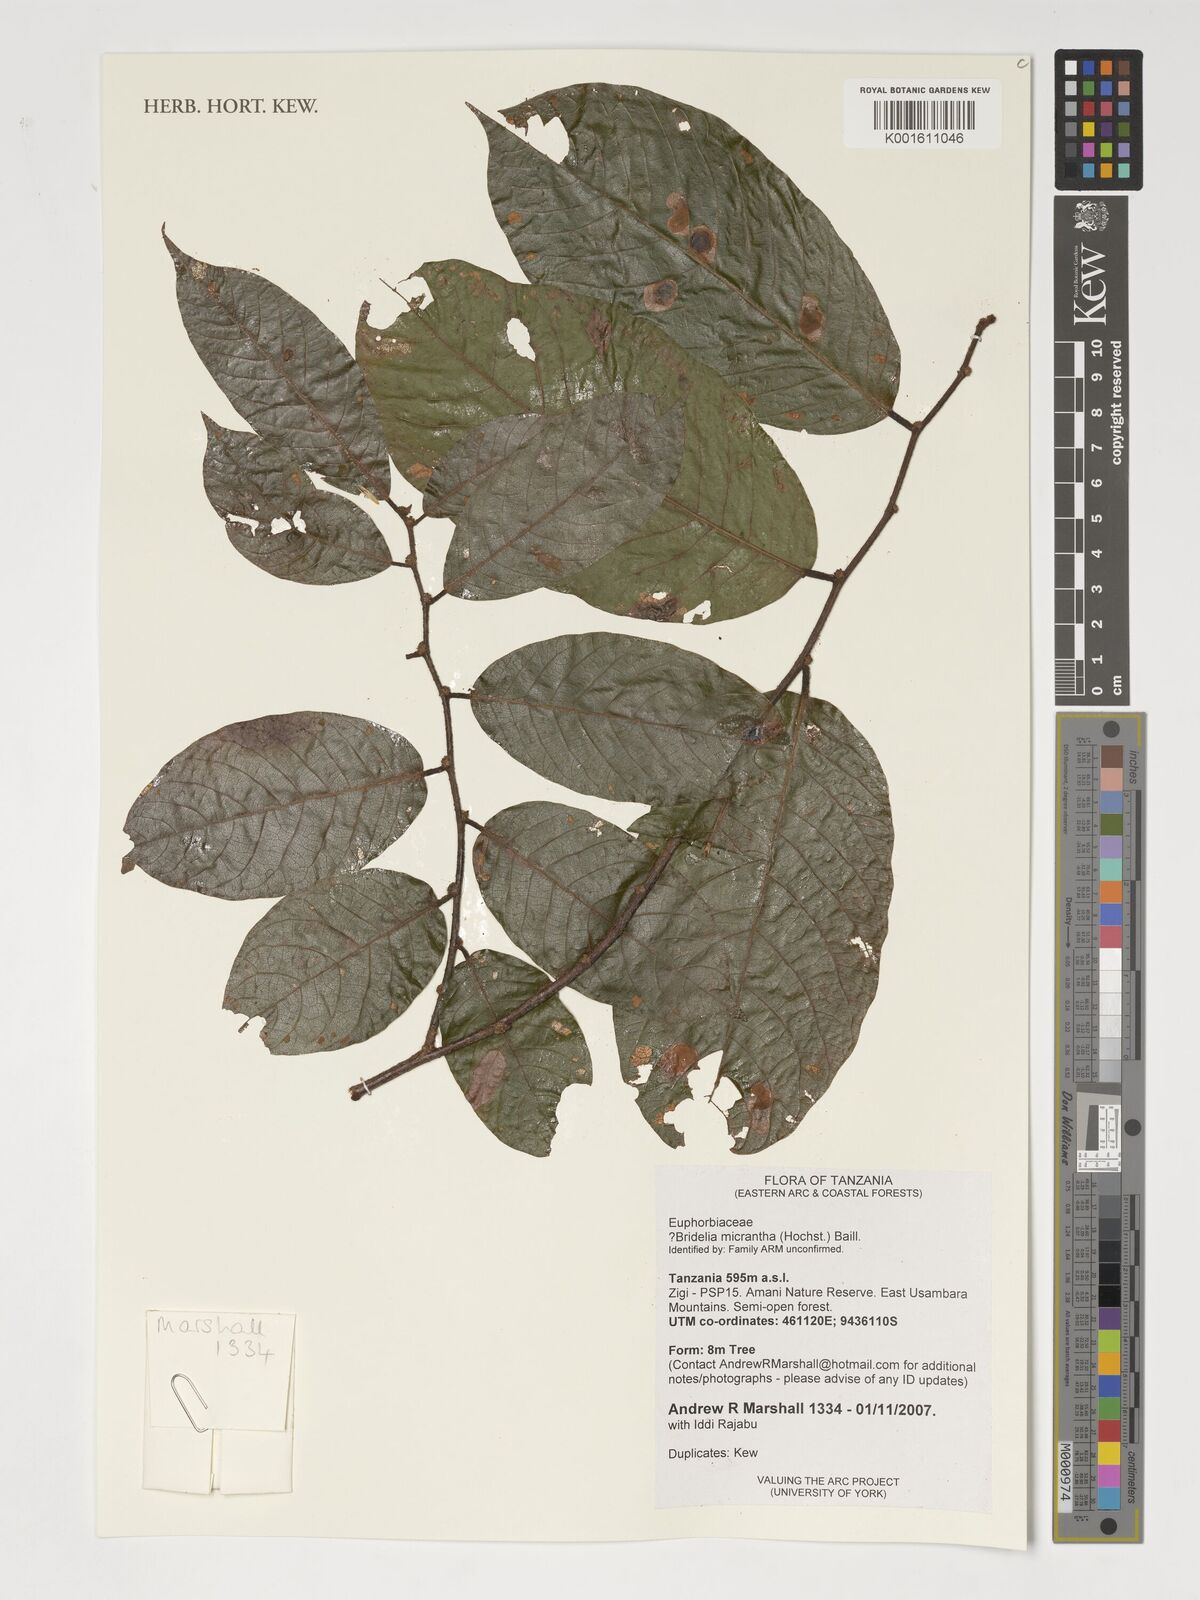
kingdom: Plantae
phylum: Tracheophyta
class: Magnoliopsida
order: Malpighiales
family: Phyllanthaceae
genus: Bridelia
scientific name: Bridelia micrantha
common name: Bridelia
